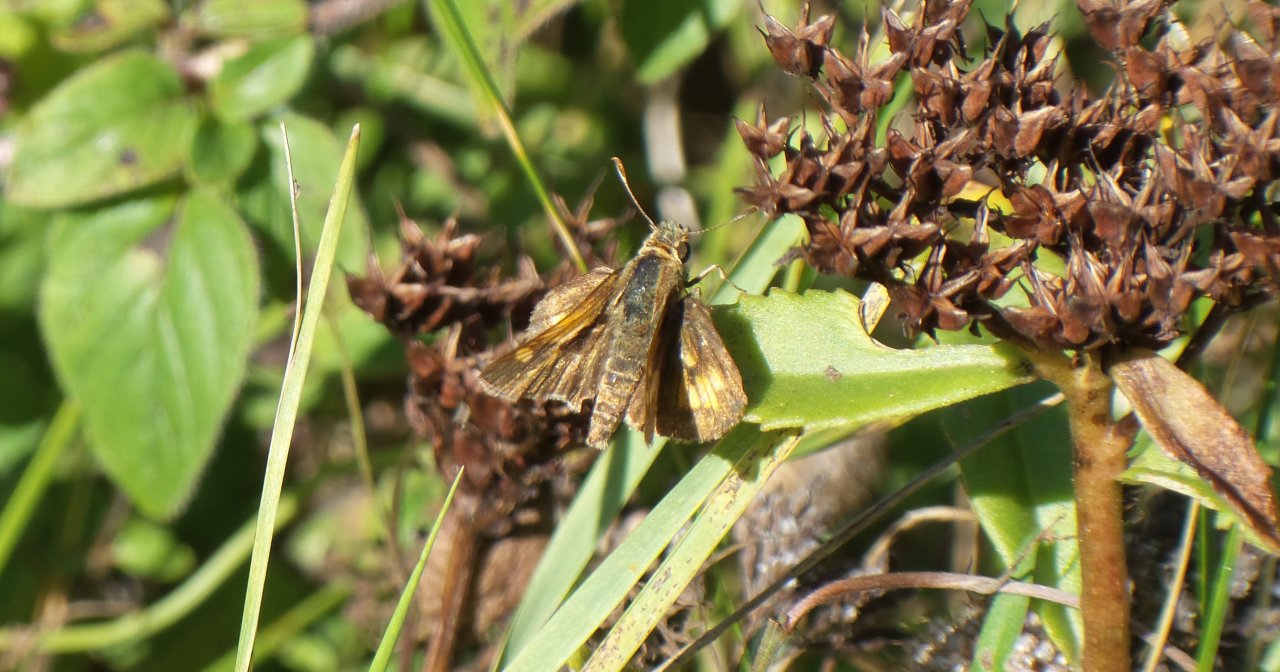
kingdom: Animalia
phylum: Arthropoda
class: Insecta
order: Lepidoptera
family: Hesperiidae
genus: Polites
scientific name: Polites coras
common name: Peck's Skipper
